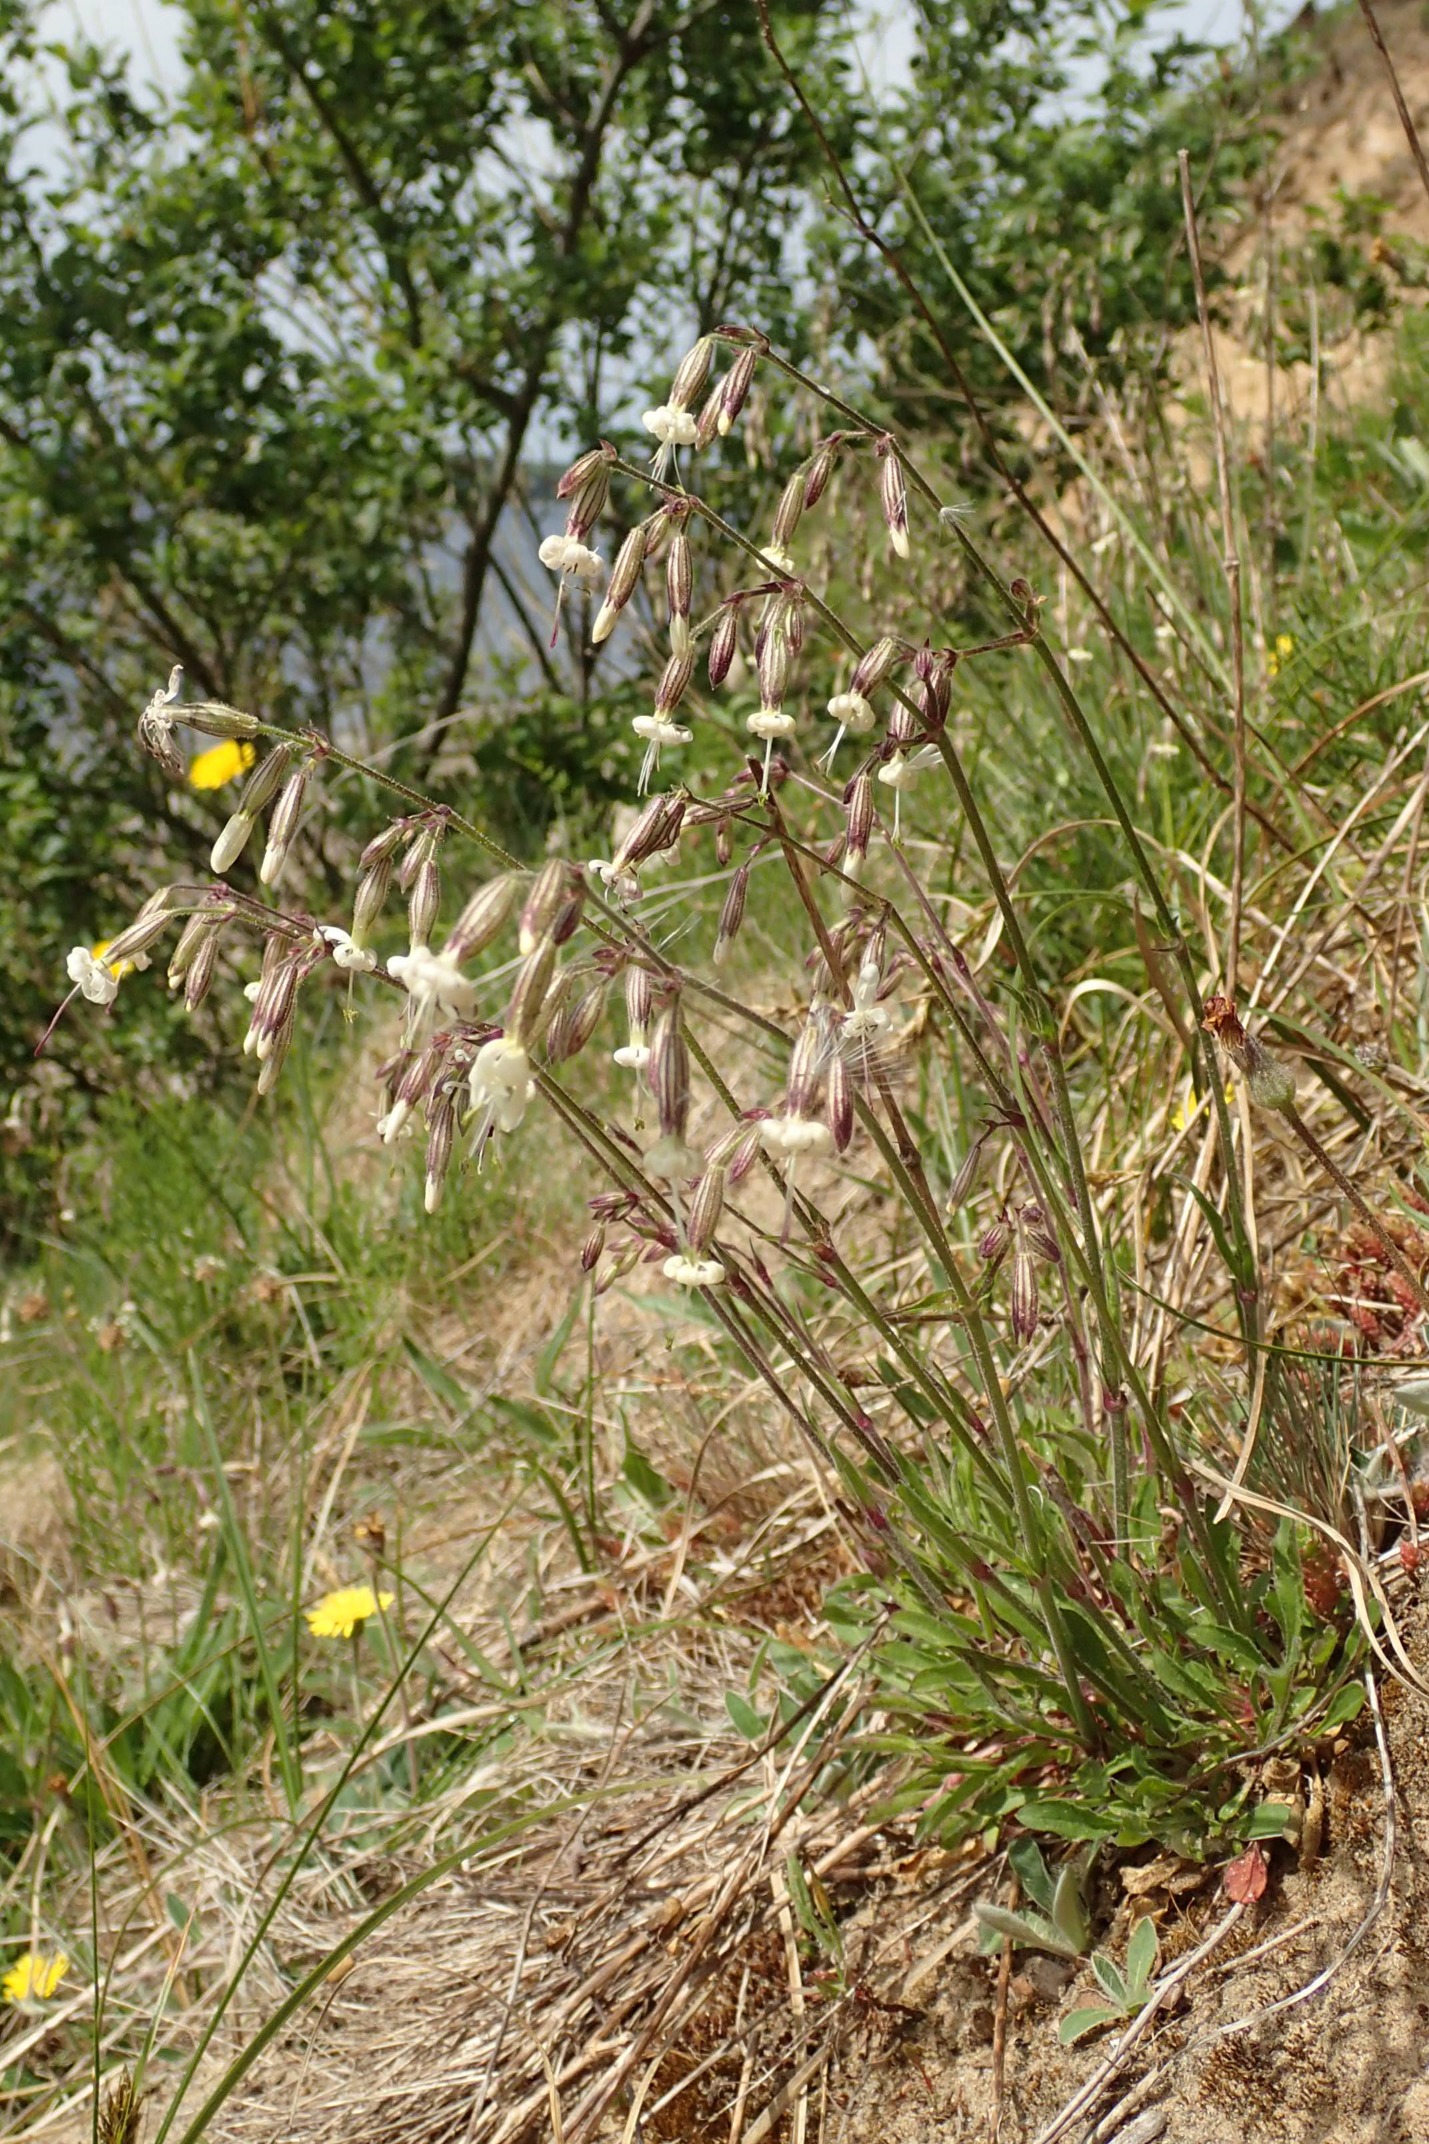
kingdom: Plantae
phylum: Tracheophyta
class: Magnoliopsida
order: Caryophyllales
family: Caryophyllaceae
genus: Silene
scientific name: Silene nutans
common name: Nikkende limurt
